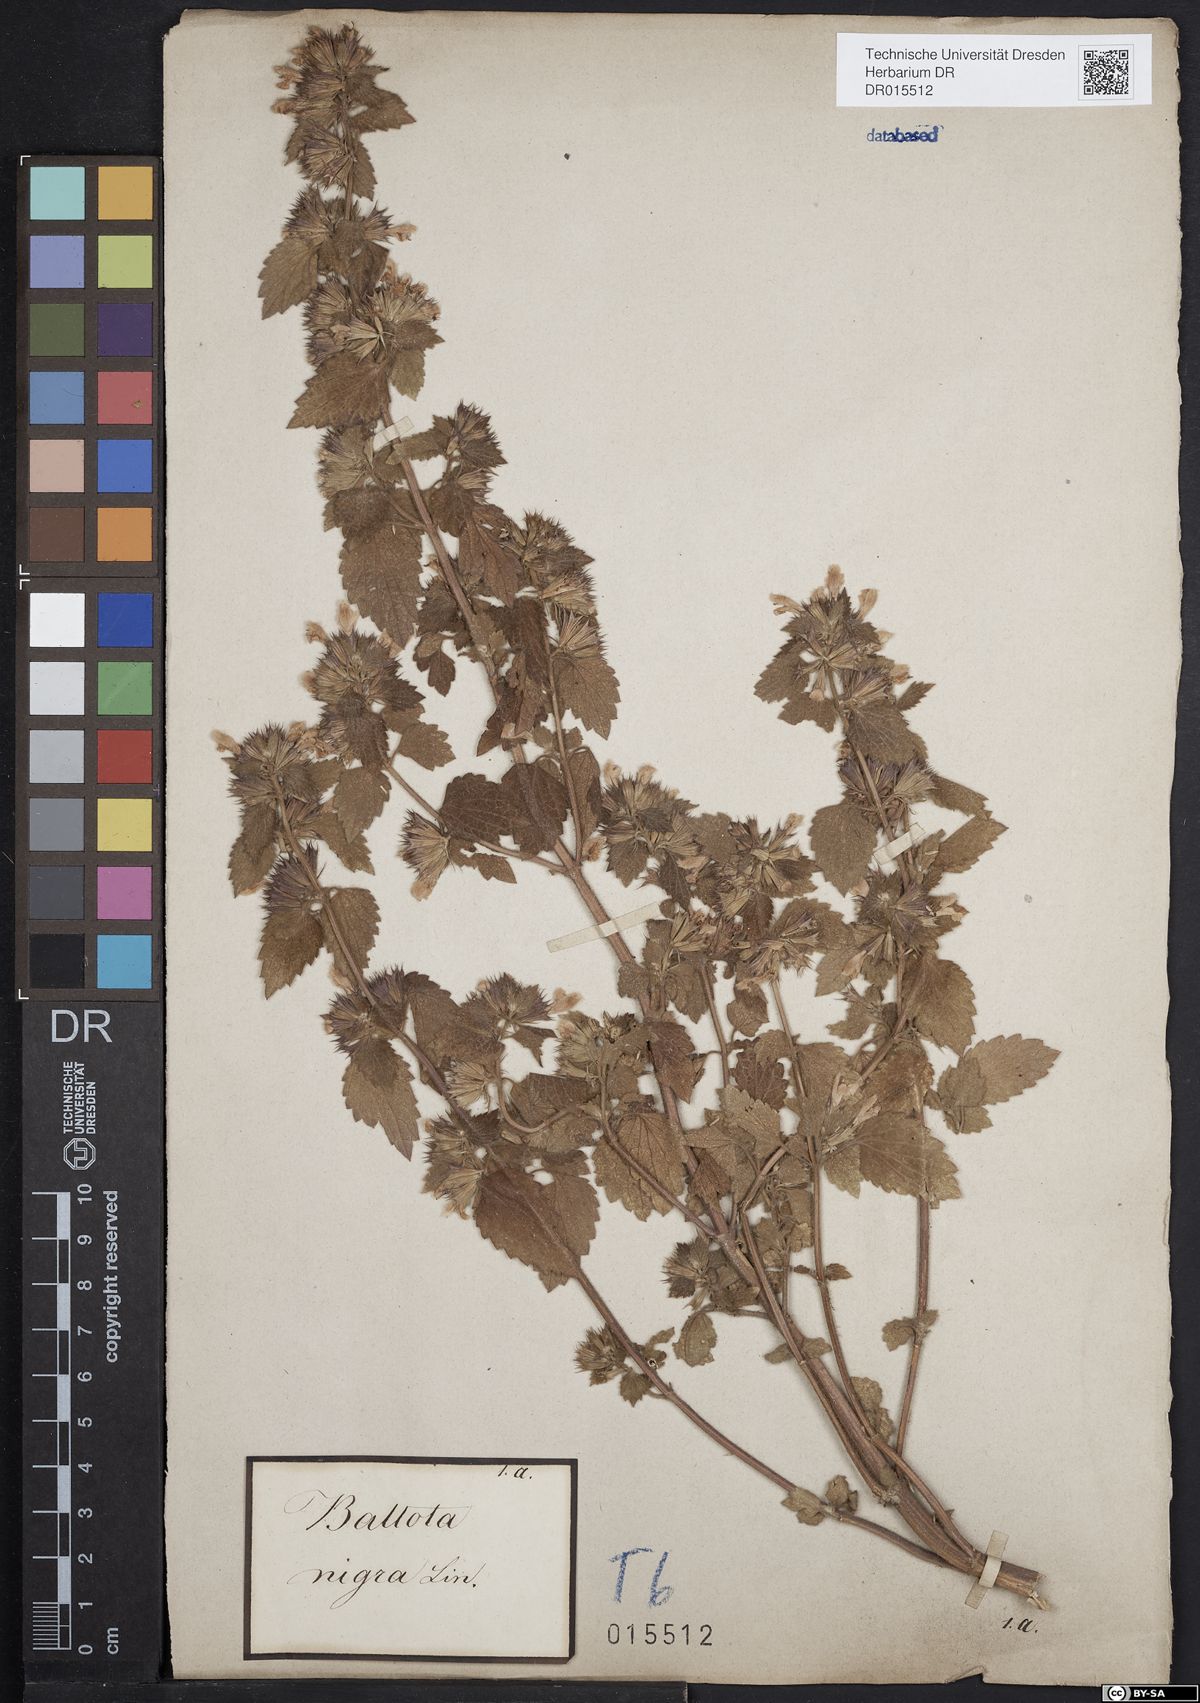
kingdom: Plantae
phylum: Tracheophyta
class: Magnoliopsida
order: Lamiales
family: Lamiaceae
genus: Ballota
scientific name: Ballota nigra
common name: Black horehound
